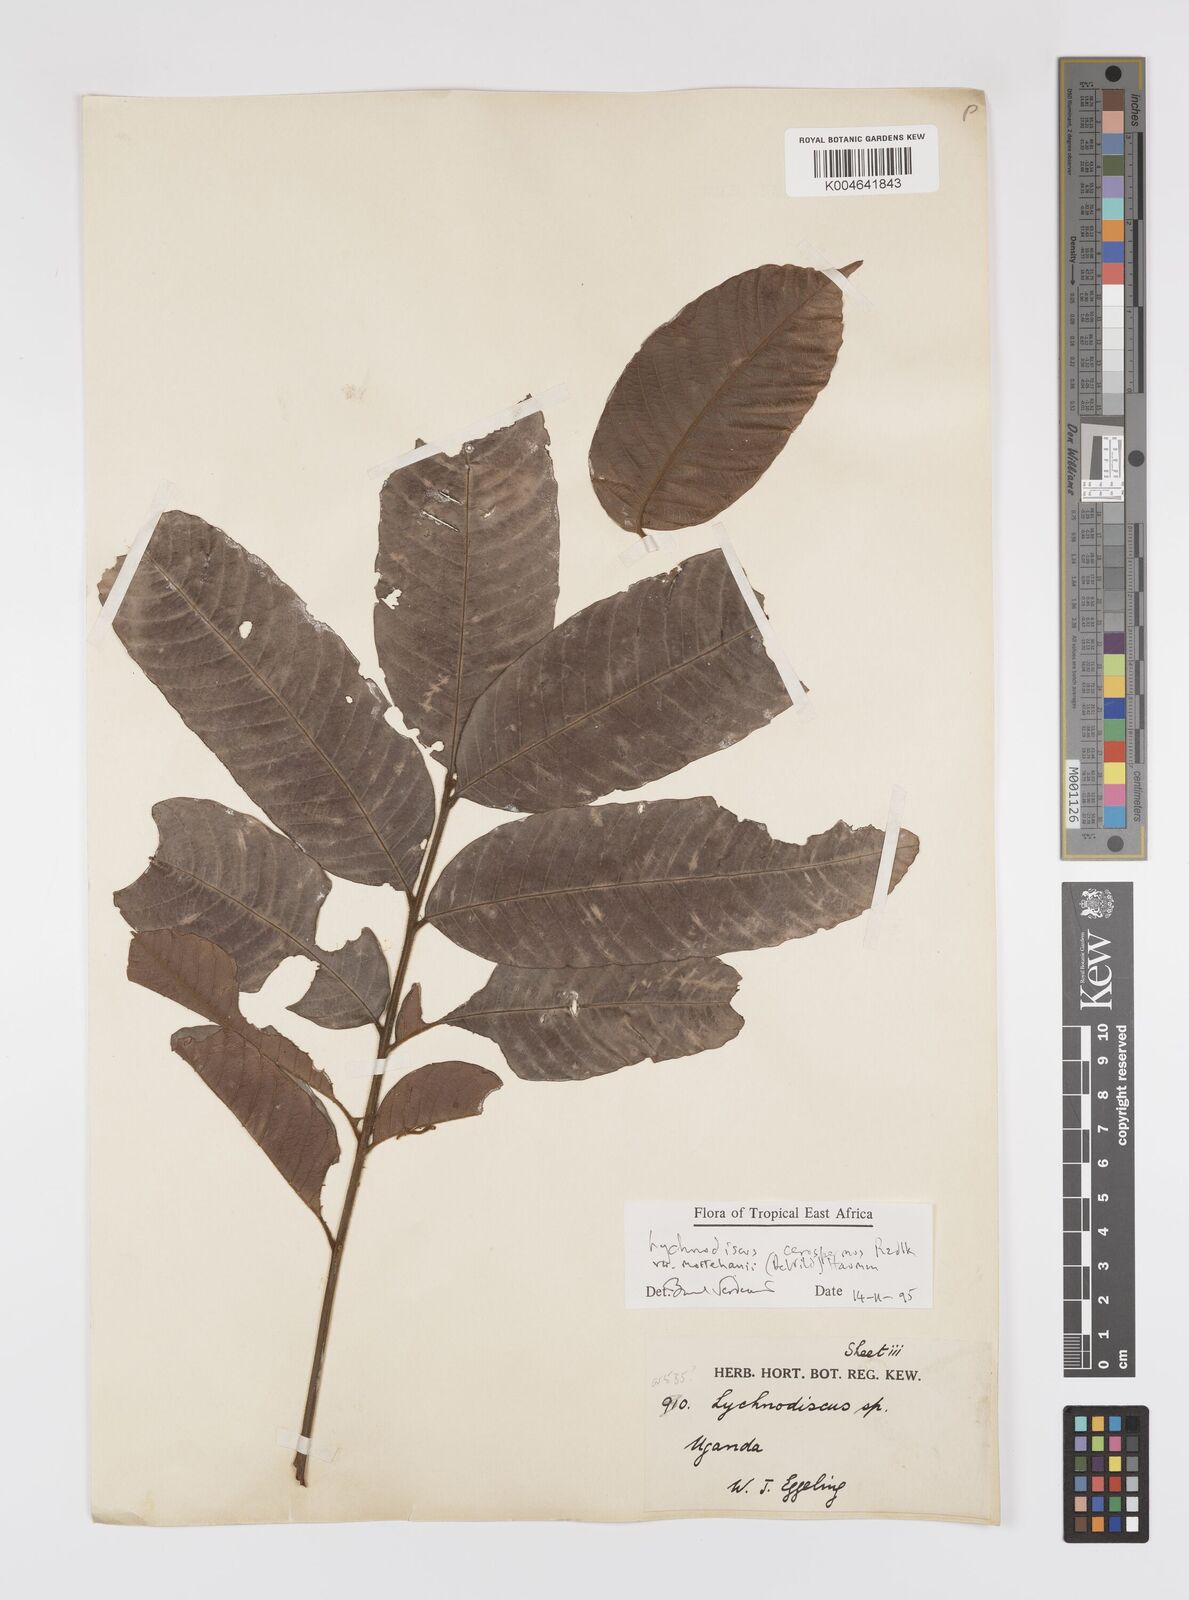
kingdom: Plantae
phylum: Tracheophyta
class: Magnoliopsida
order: Sapindales
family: Sapindaceae
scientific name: Sapindaceae
